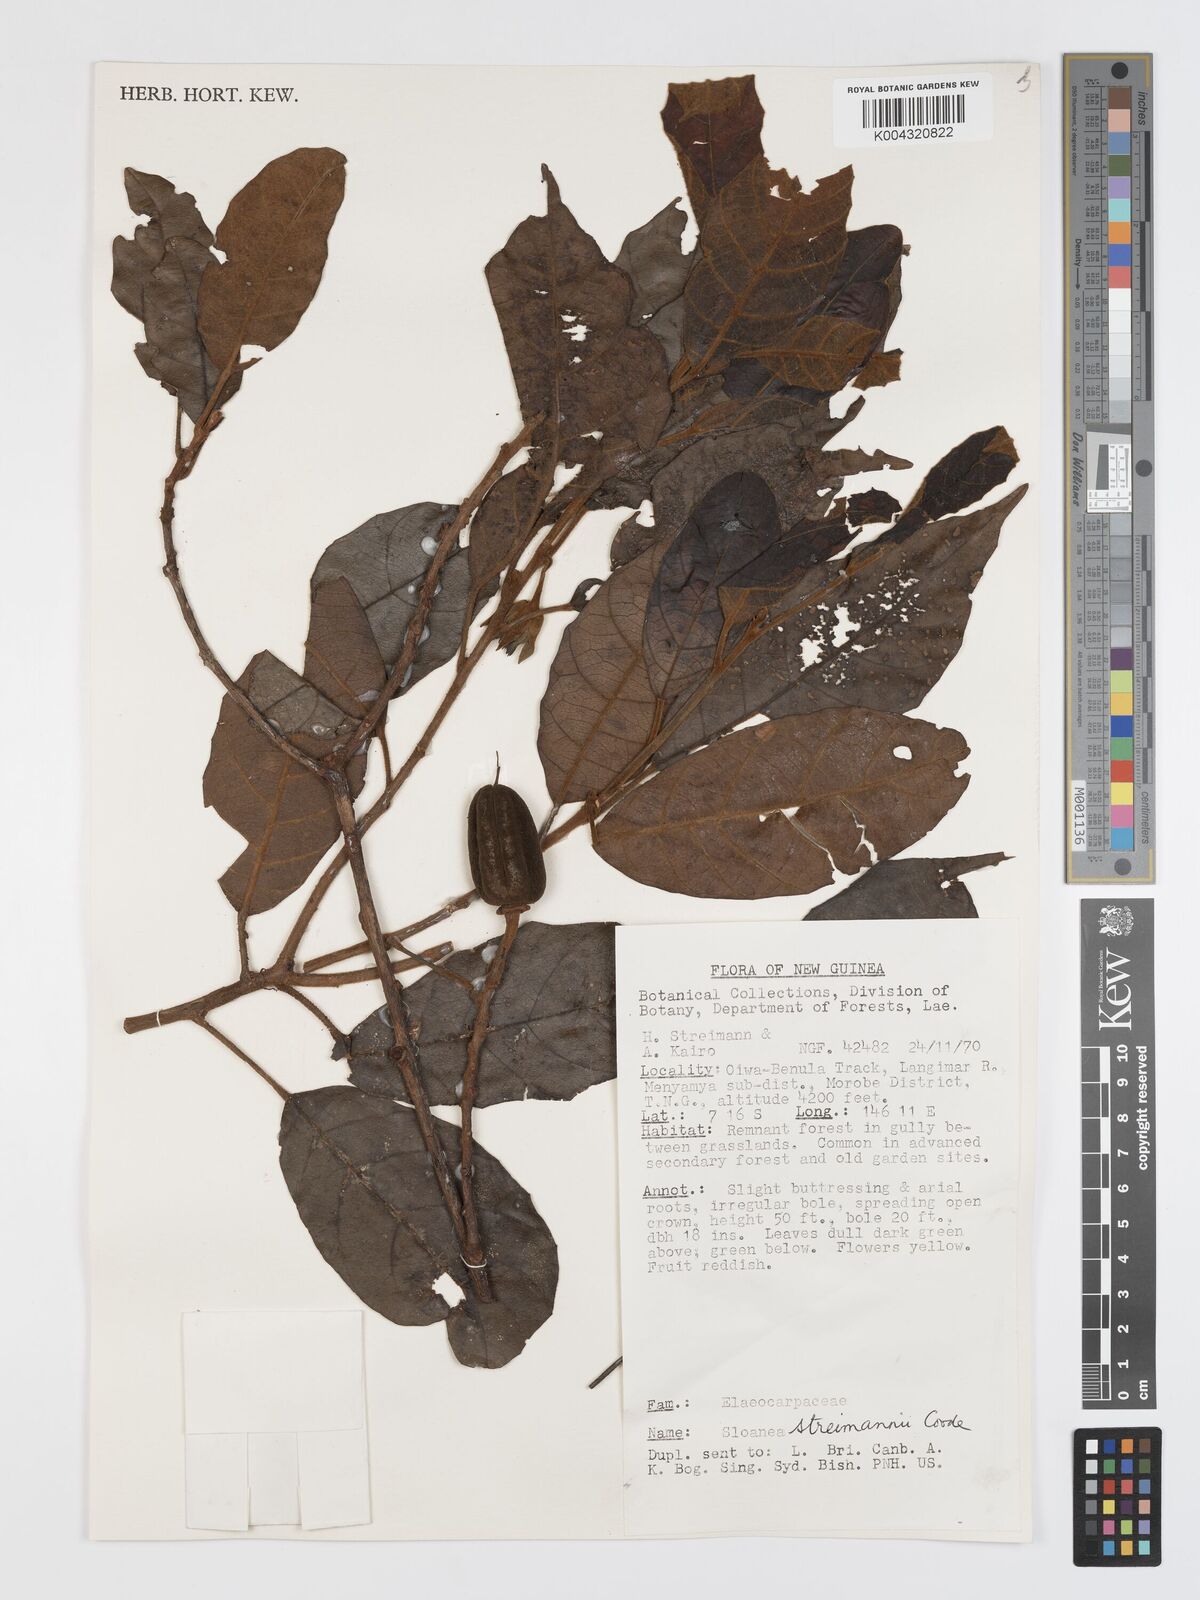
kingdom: Plantae
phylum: Tracheophyta
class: Magnoliopsida
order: Oxalidales
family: Elaeocarpaceae
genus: Sloanea
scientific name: Sloanea streimannii
